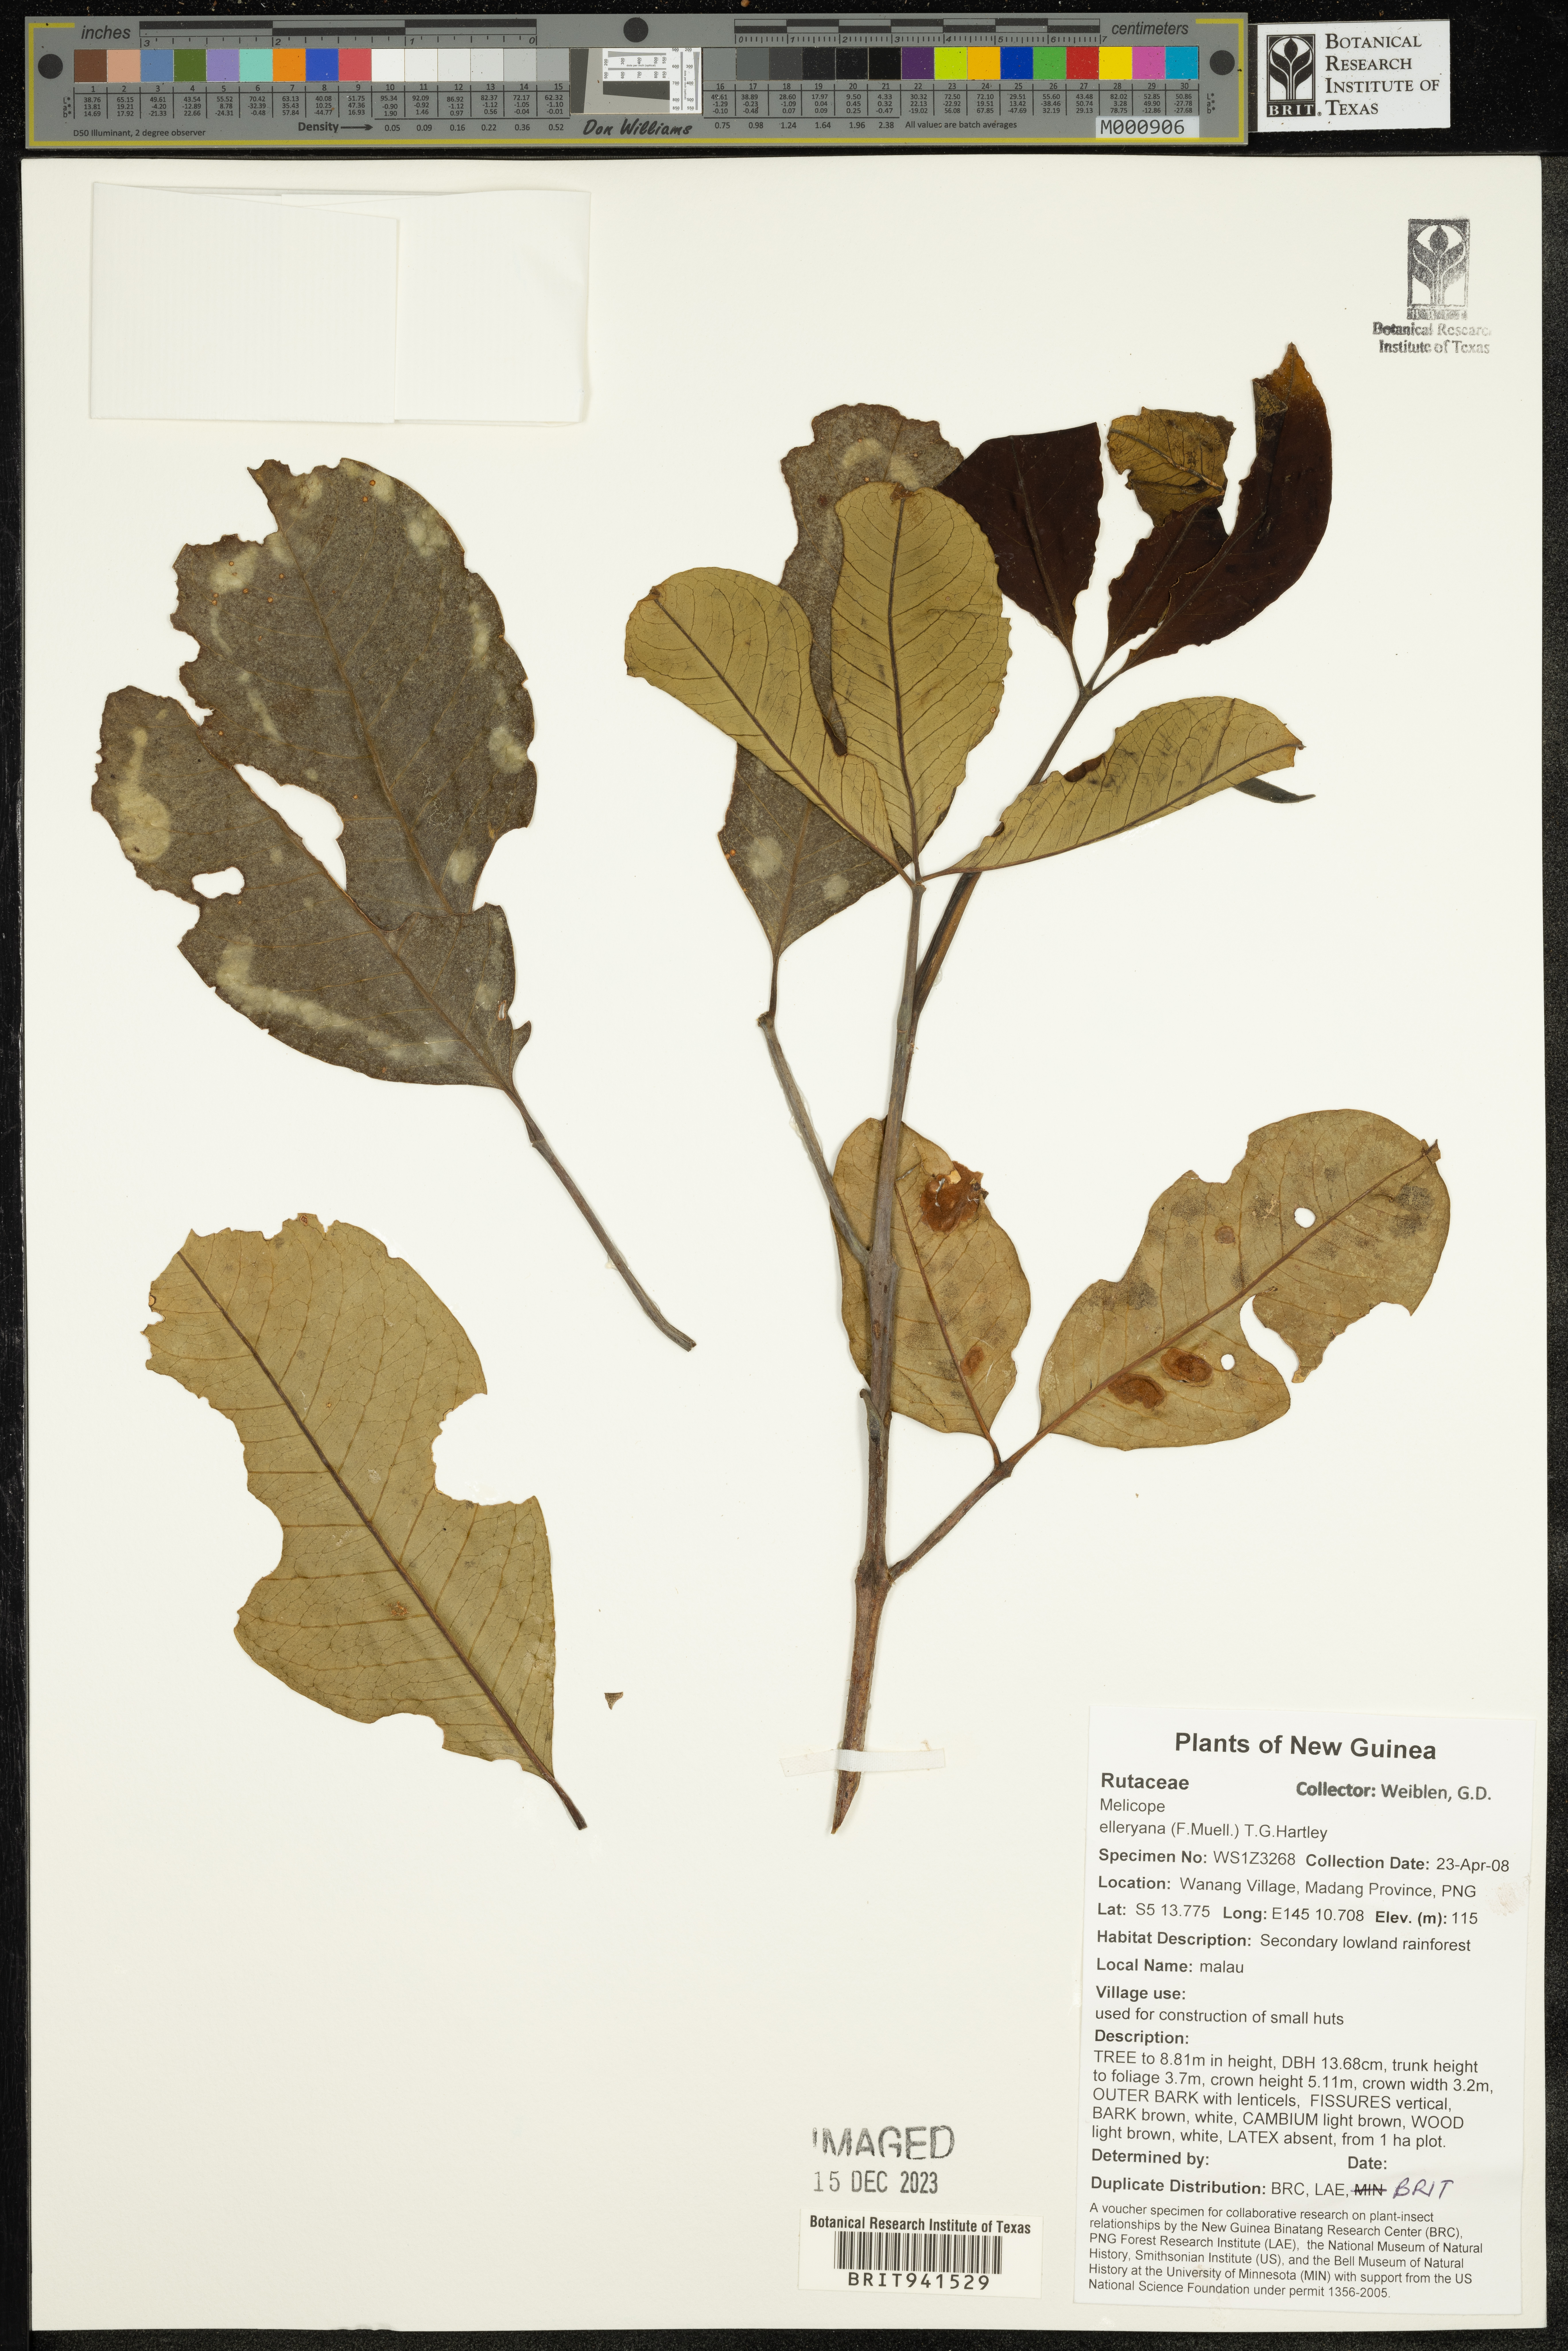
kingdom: Plantae
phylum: Tracheophyta
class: Magnoliopsida
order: Sapindales
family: Rutaceae
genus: Melicope
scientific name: Melicope
